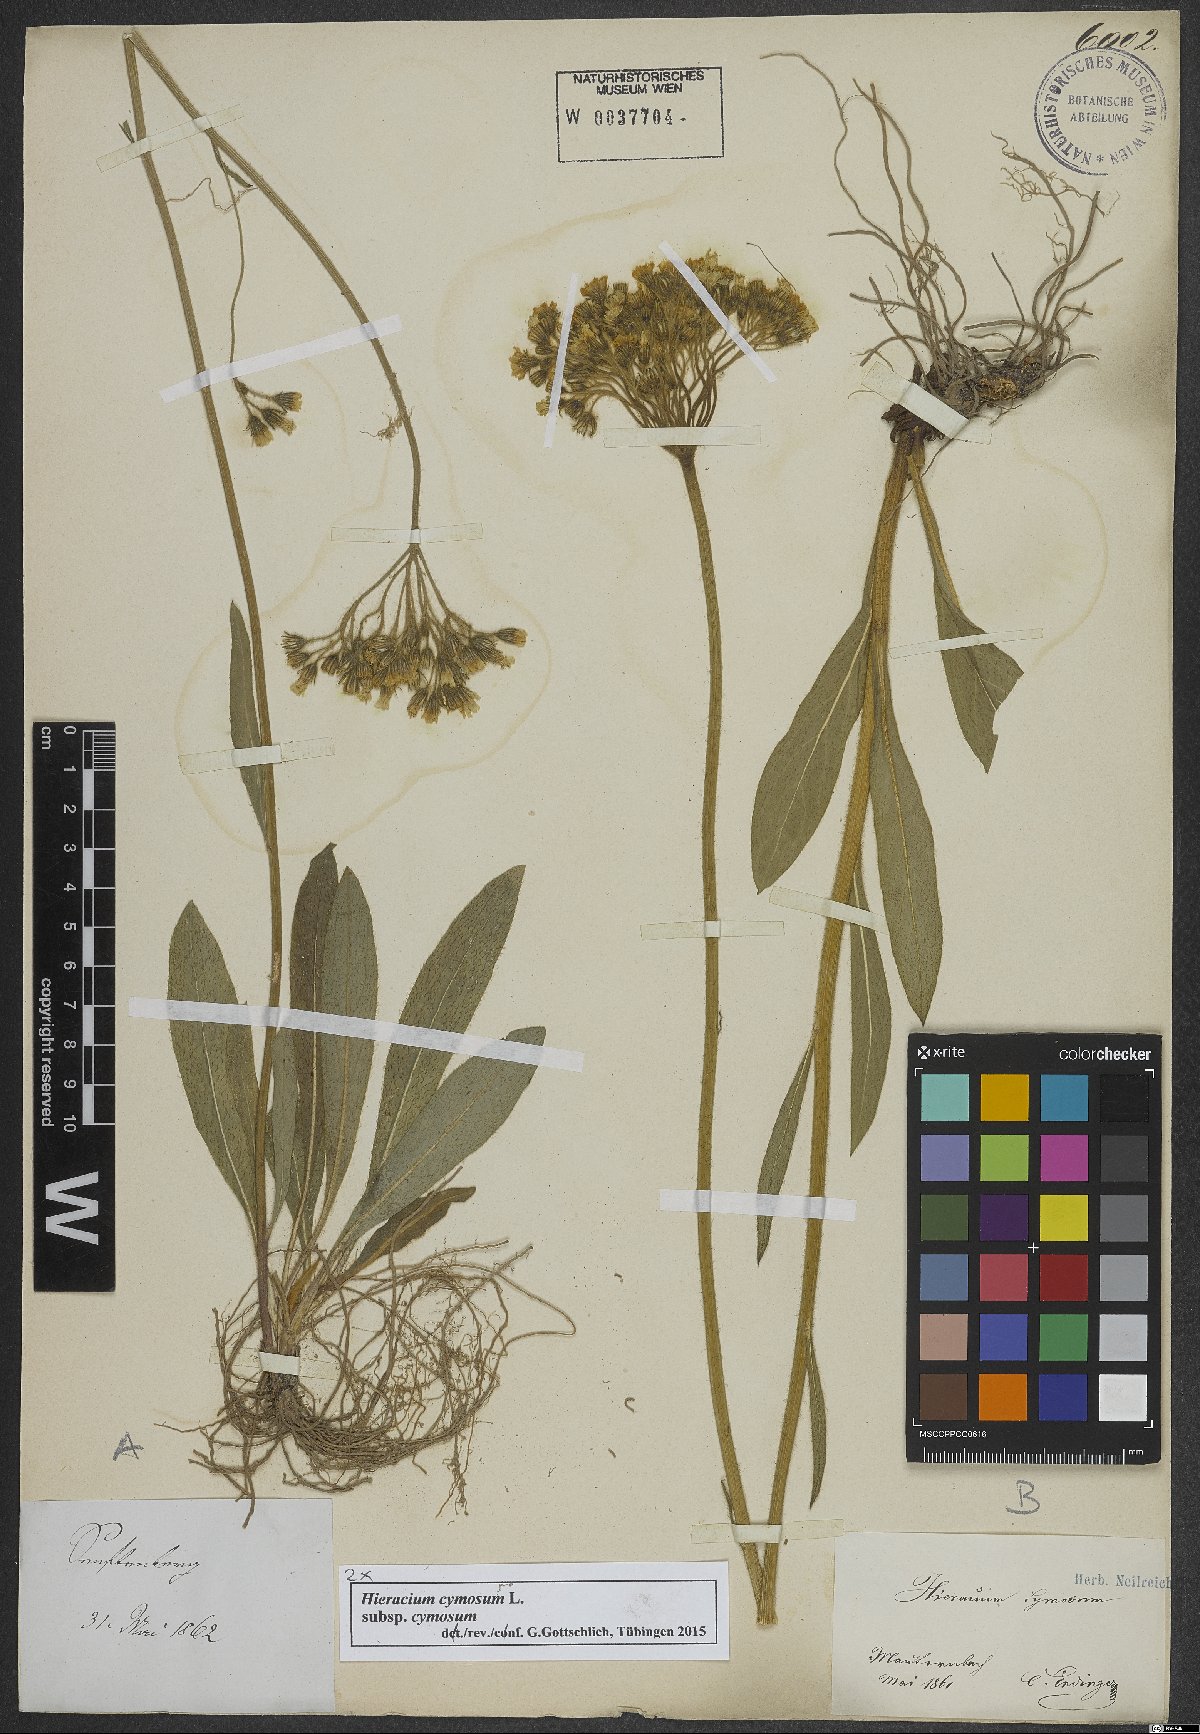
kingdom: Plantae
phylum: Tracheophyta
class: Magnoliopsida
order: Asterales
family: Asteraceae
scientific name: Asteraceae
